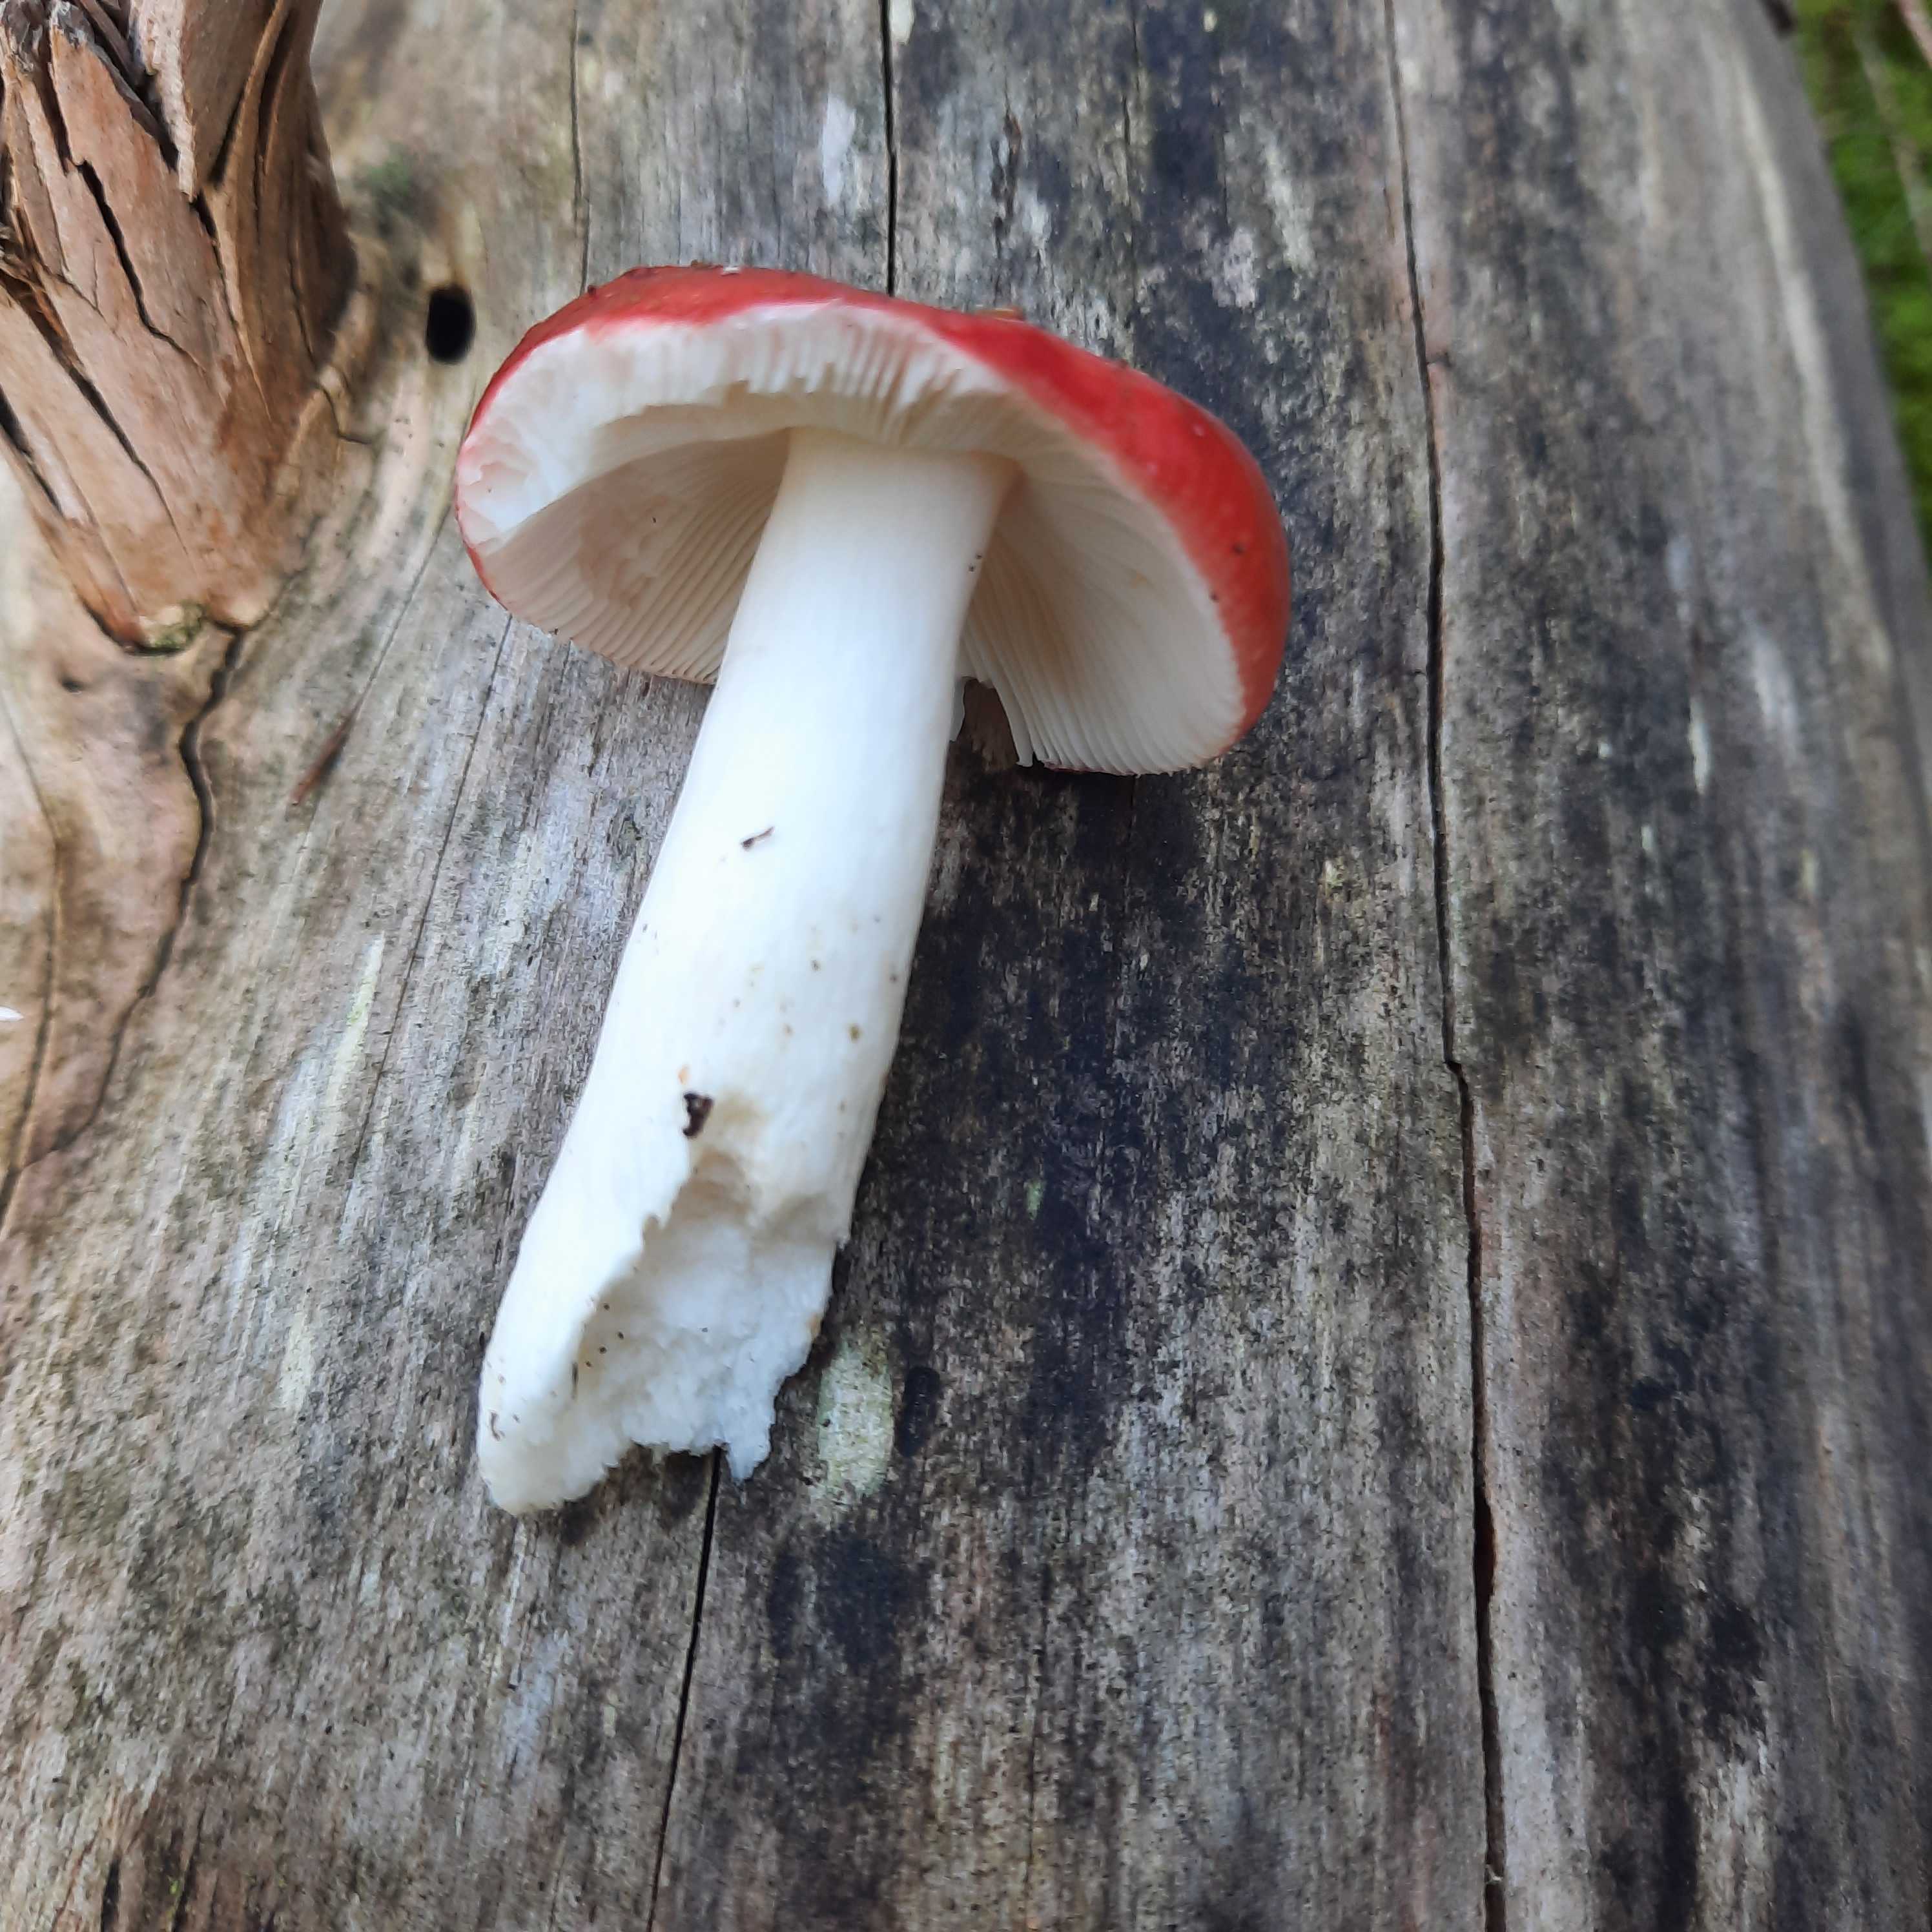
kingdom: Fungi
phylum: Basidiomycota
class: Agaricomycetes
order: Russulales
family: Russulaceae
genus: Russula
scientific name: Russula emetica
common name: stor gift-skørhat
